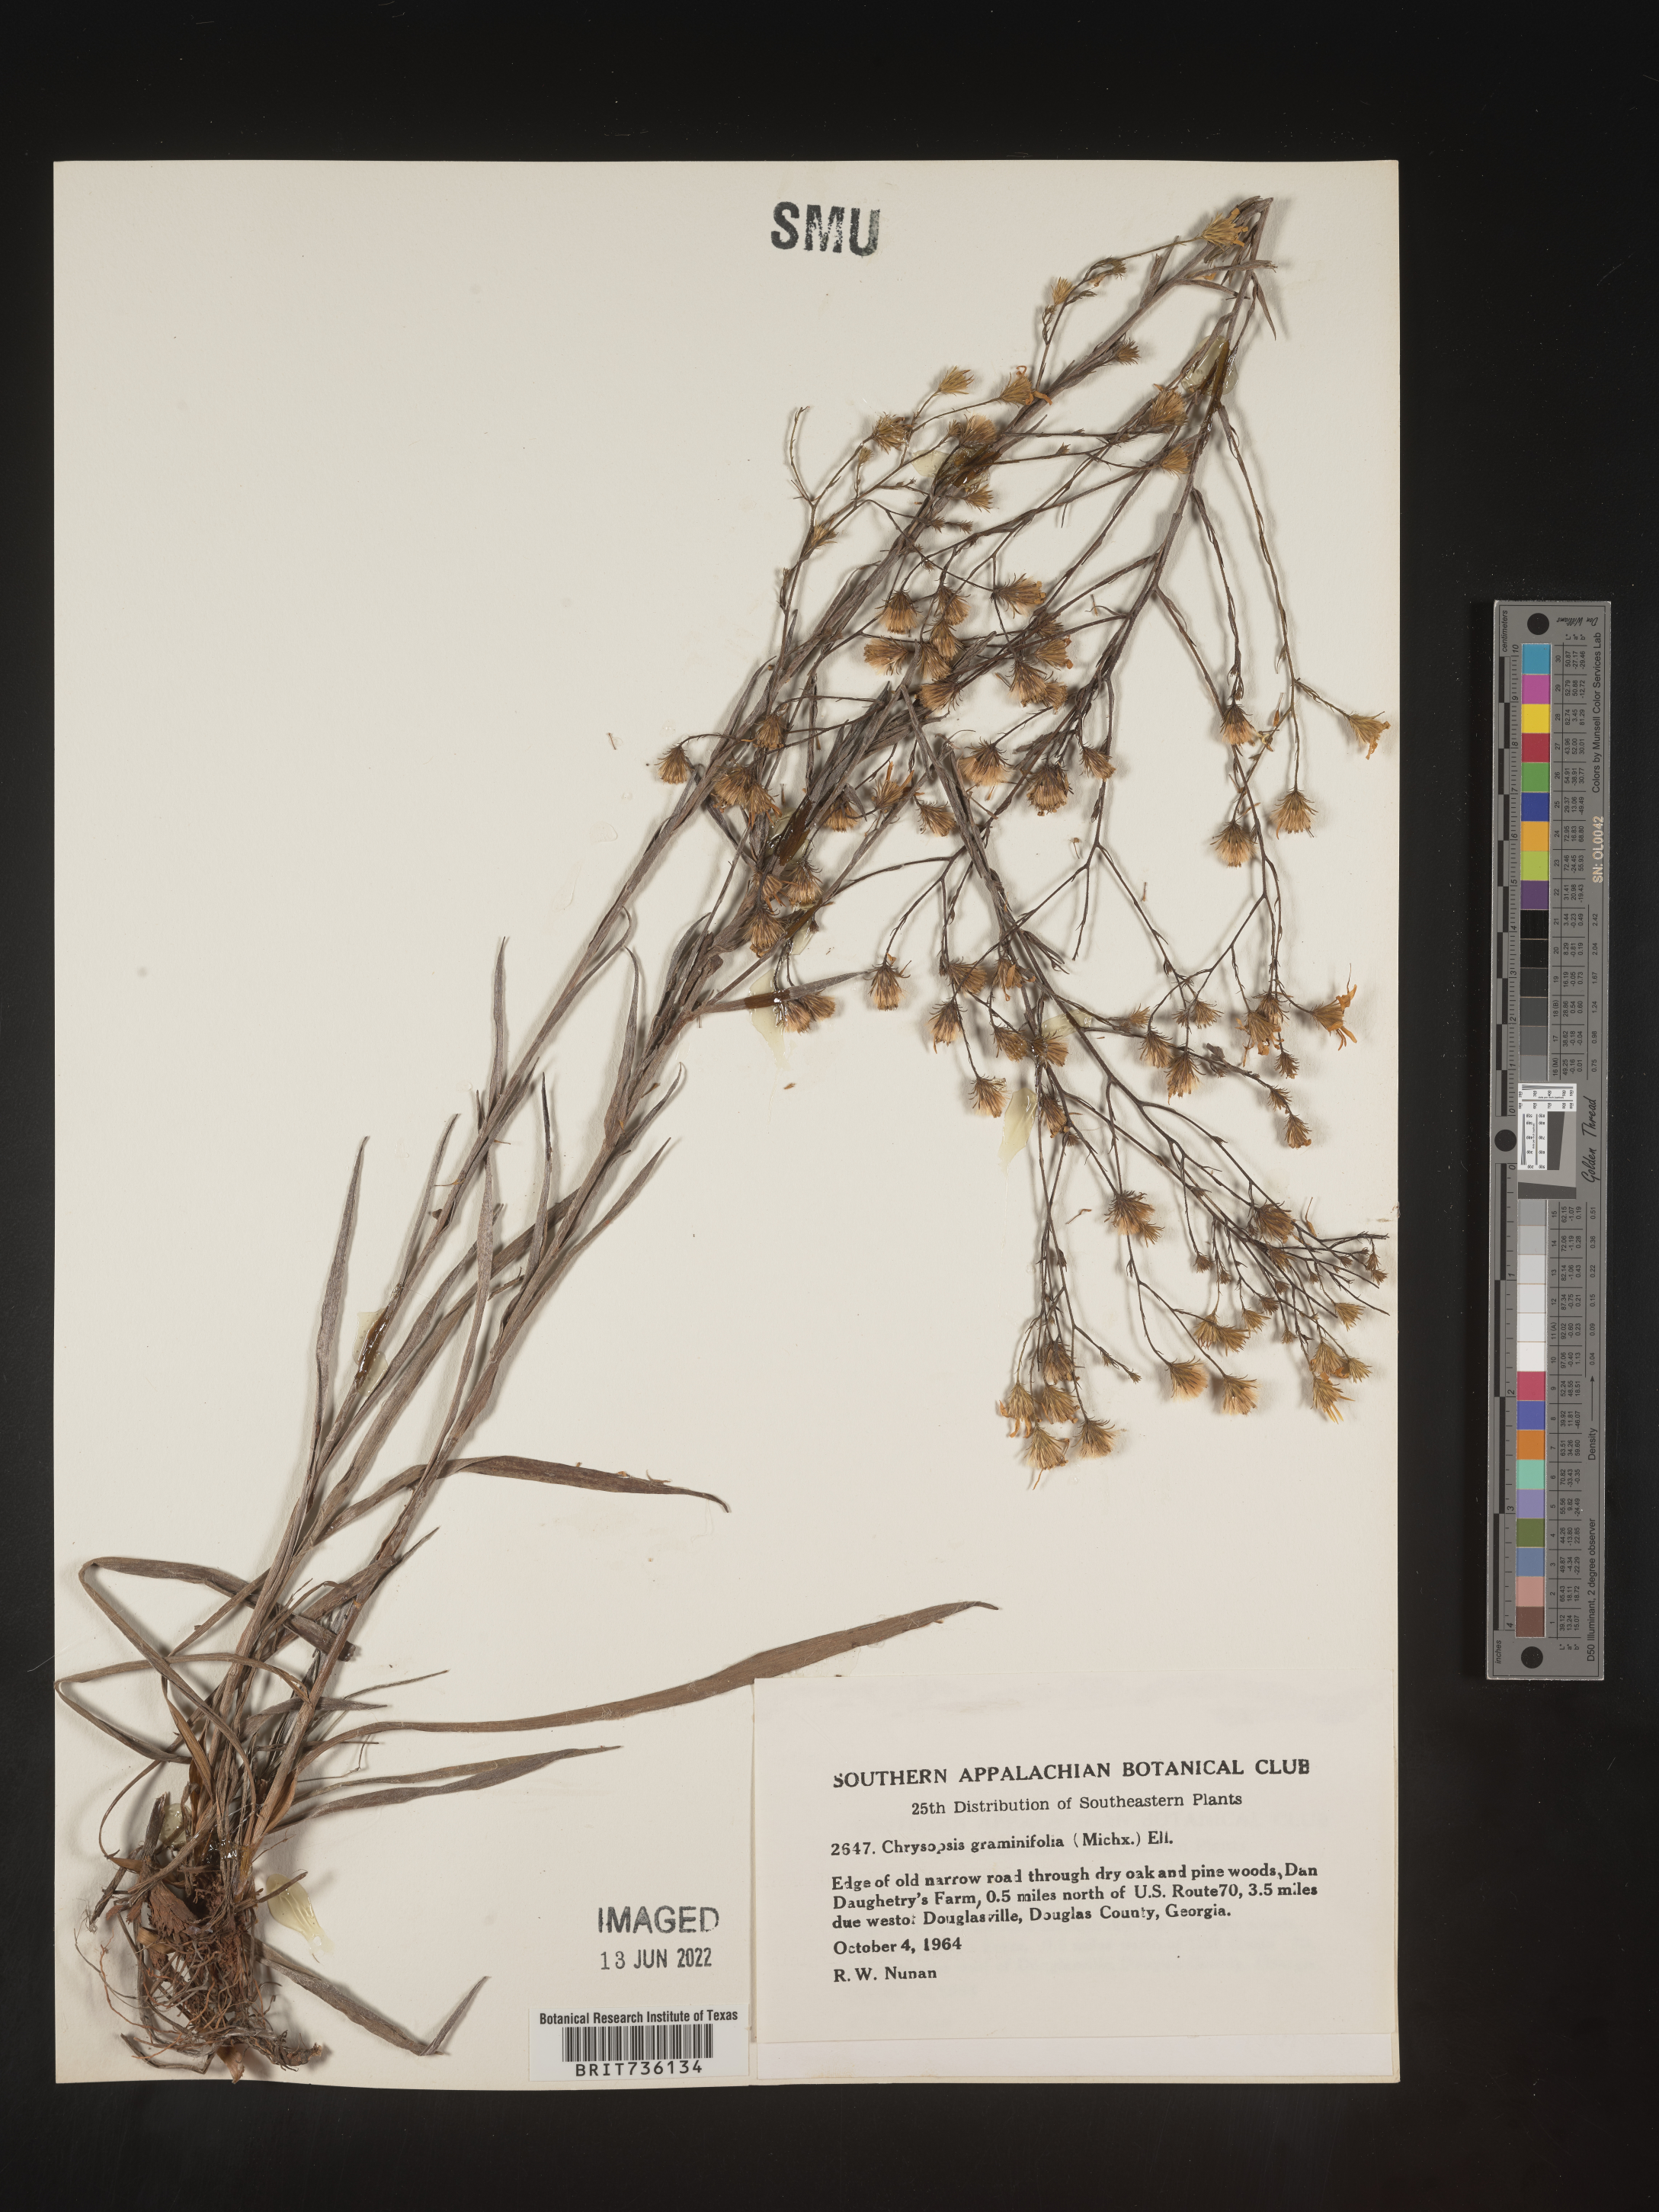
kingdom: Plantae
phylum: Tracheophyta
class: Magnoliopsida
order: Asterales
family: Asteraceae
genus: Pityopsis
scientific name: Pityopsis aspera
